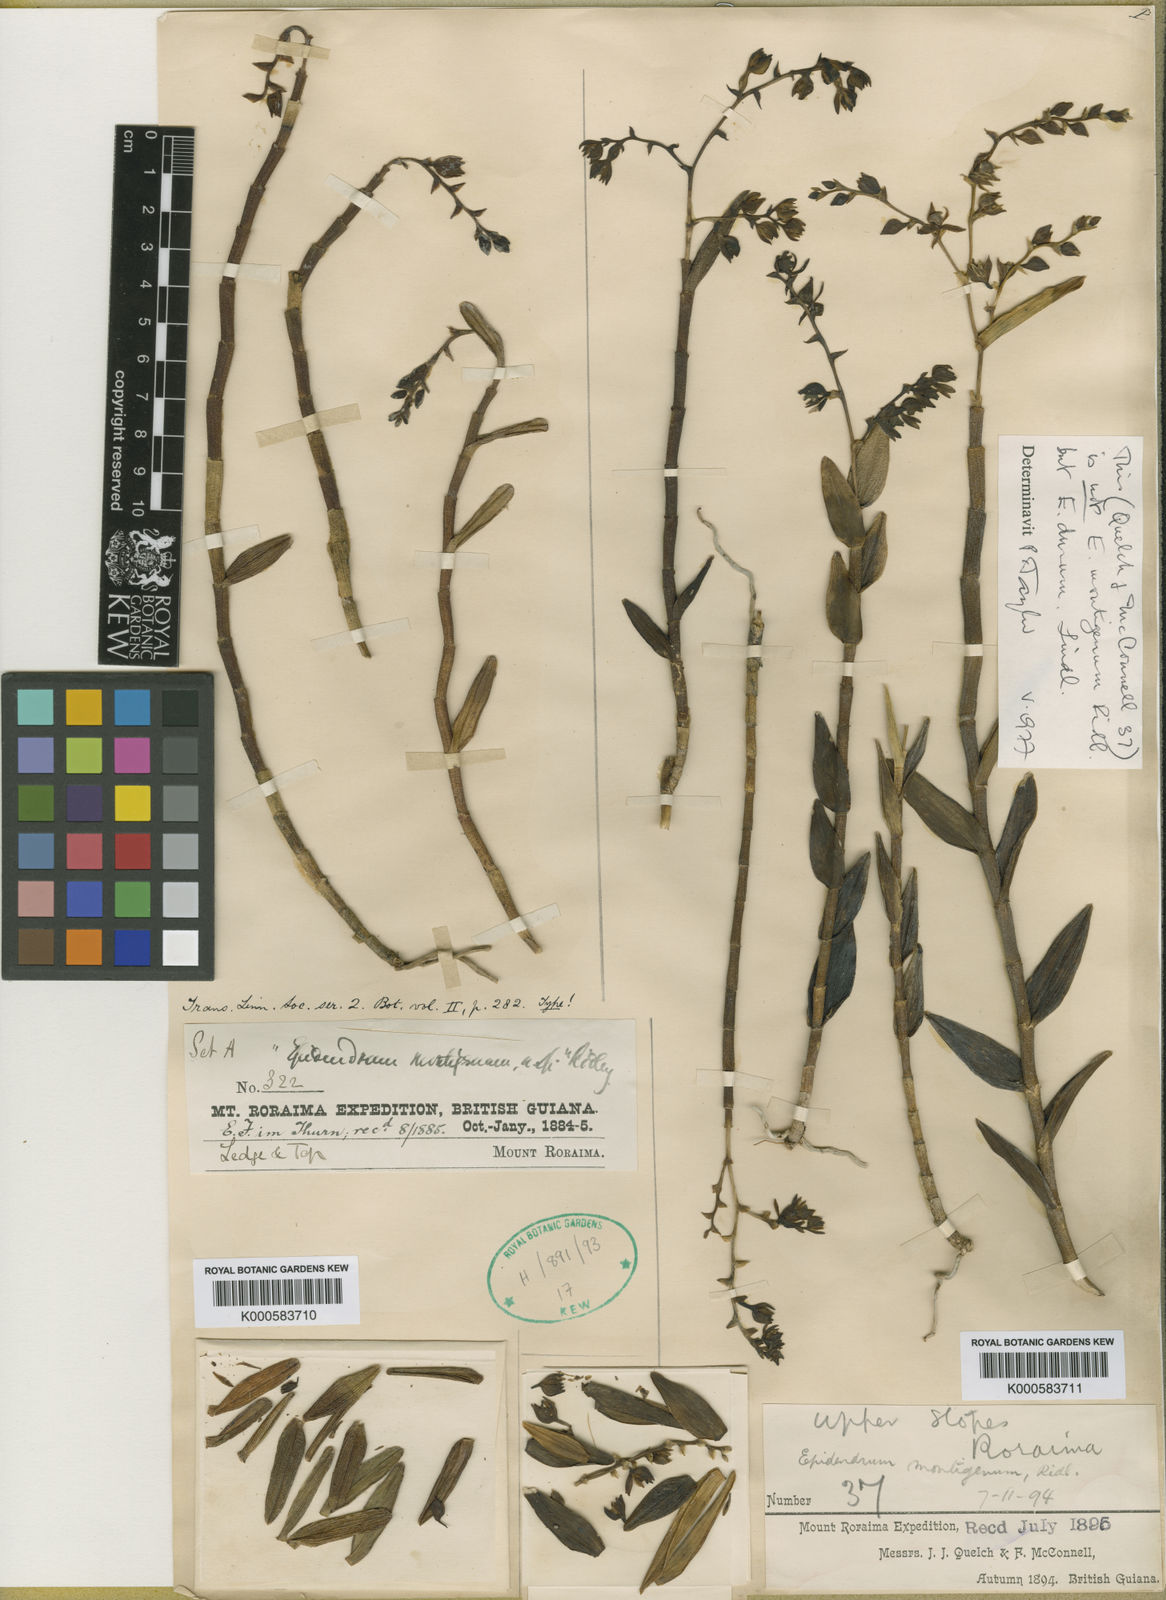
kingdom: Plantae
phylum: Tracheophyta
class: Liliopsida
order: Asparagales
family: Orchidaceae
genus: Epidendrum
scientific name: Epidendrum
